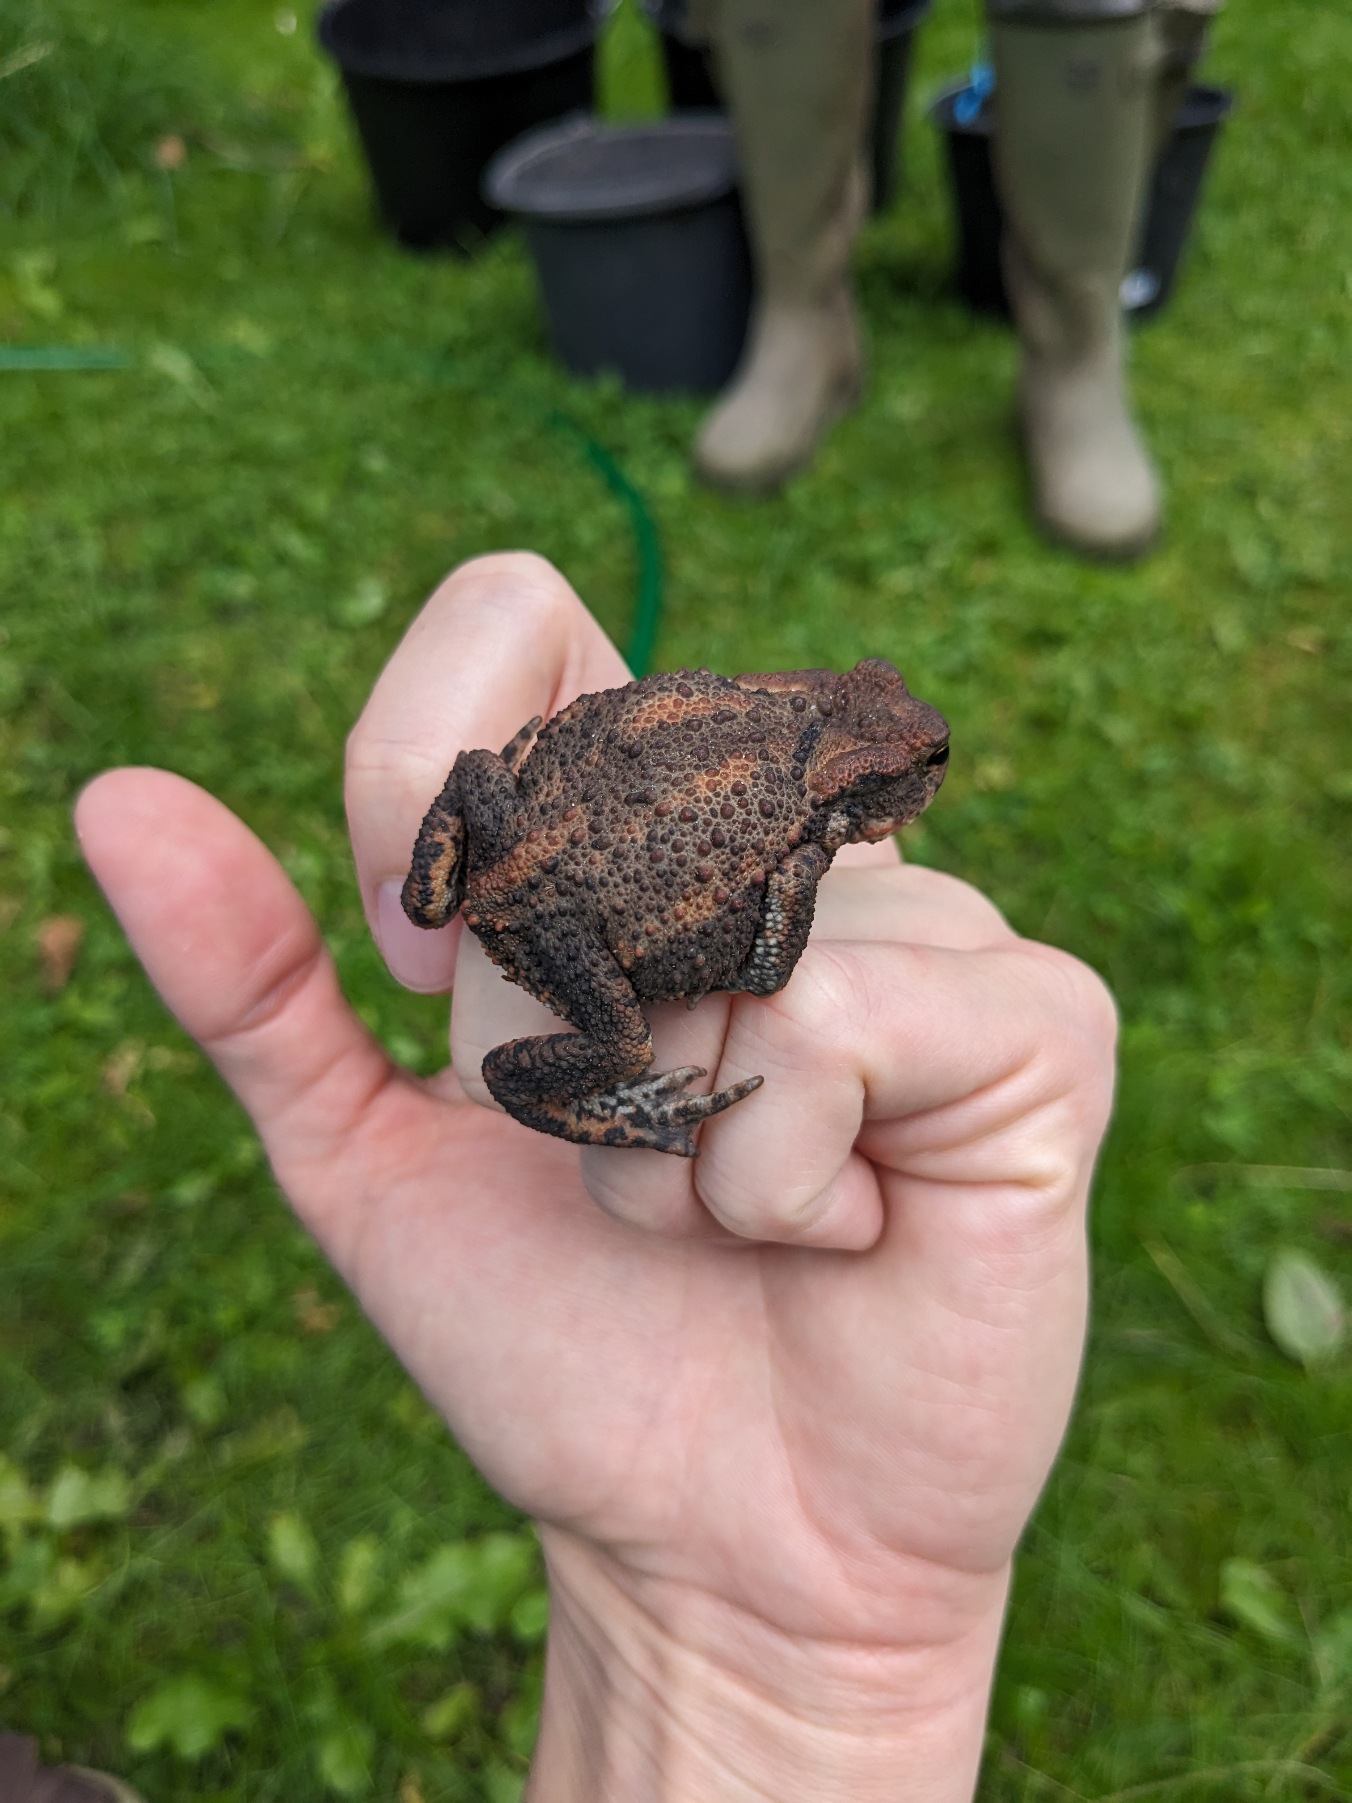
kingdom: Animalia
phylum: Chordata
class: Amphibia
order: Anura
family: Bufonidae
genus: Bufo
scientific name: Bufo bufo
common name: Skrubtudse
